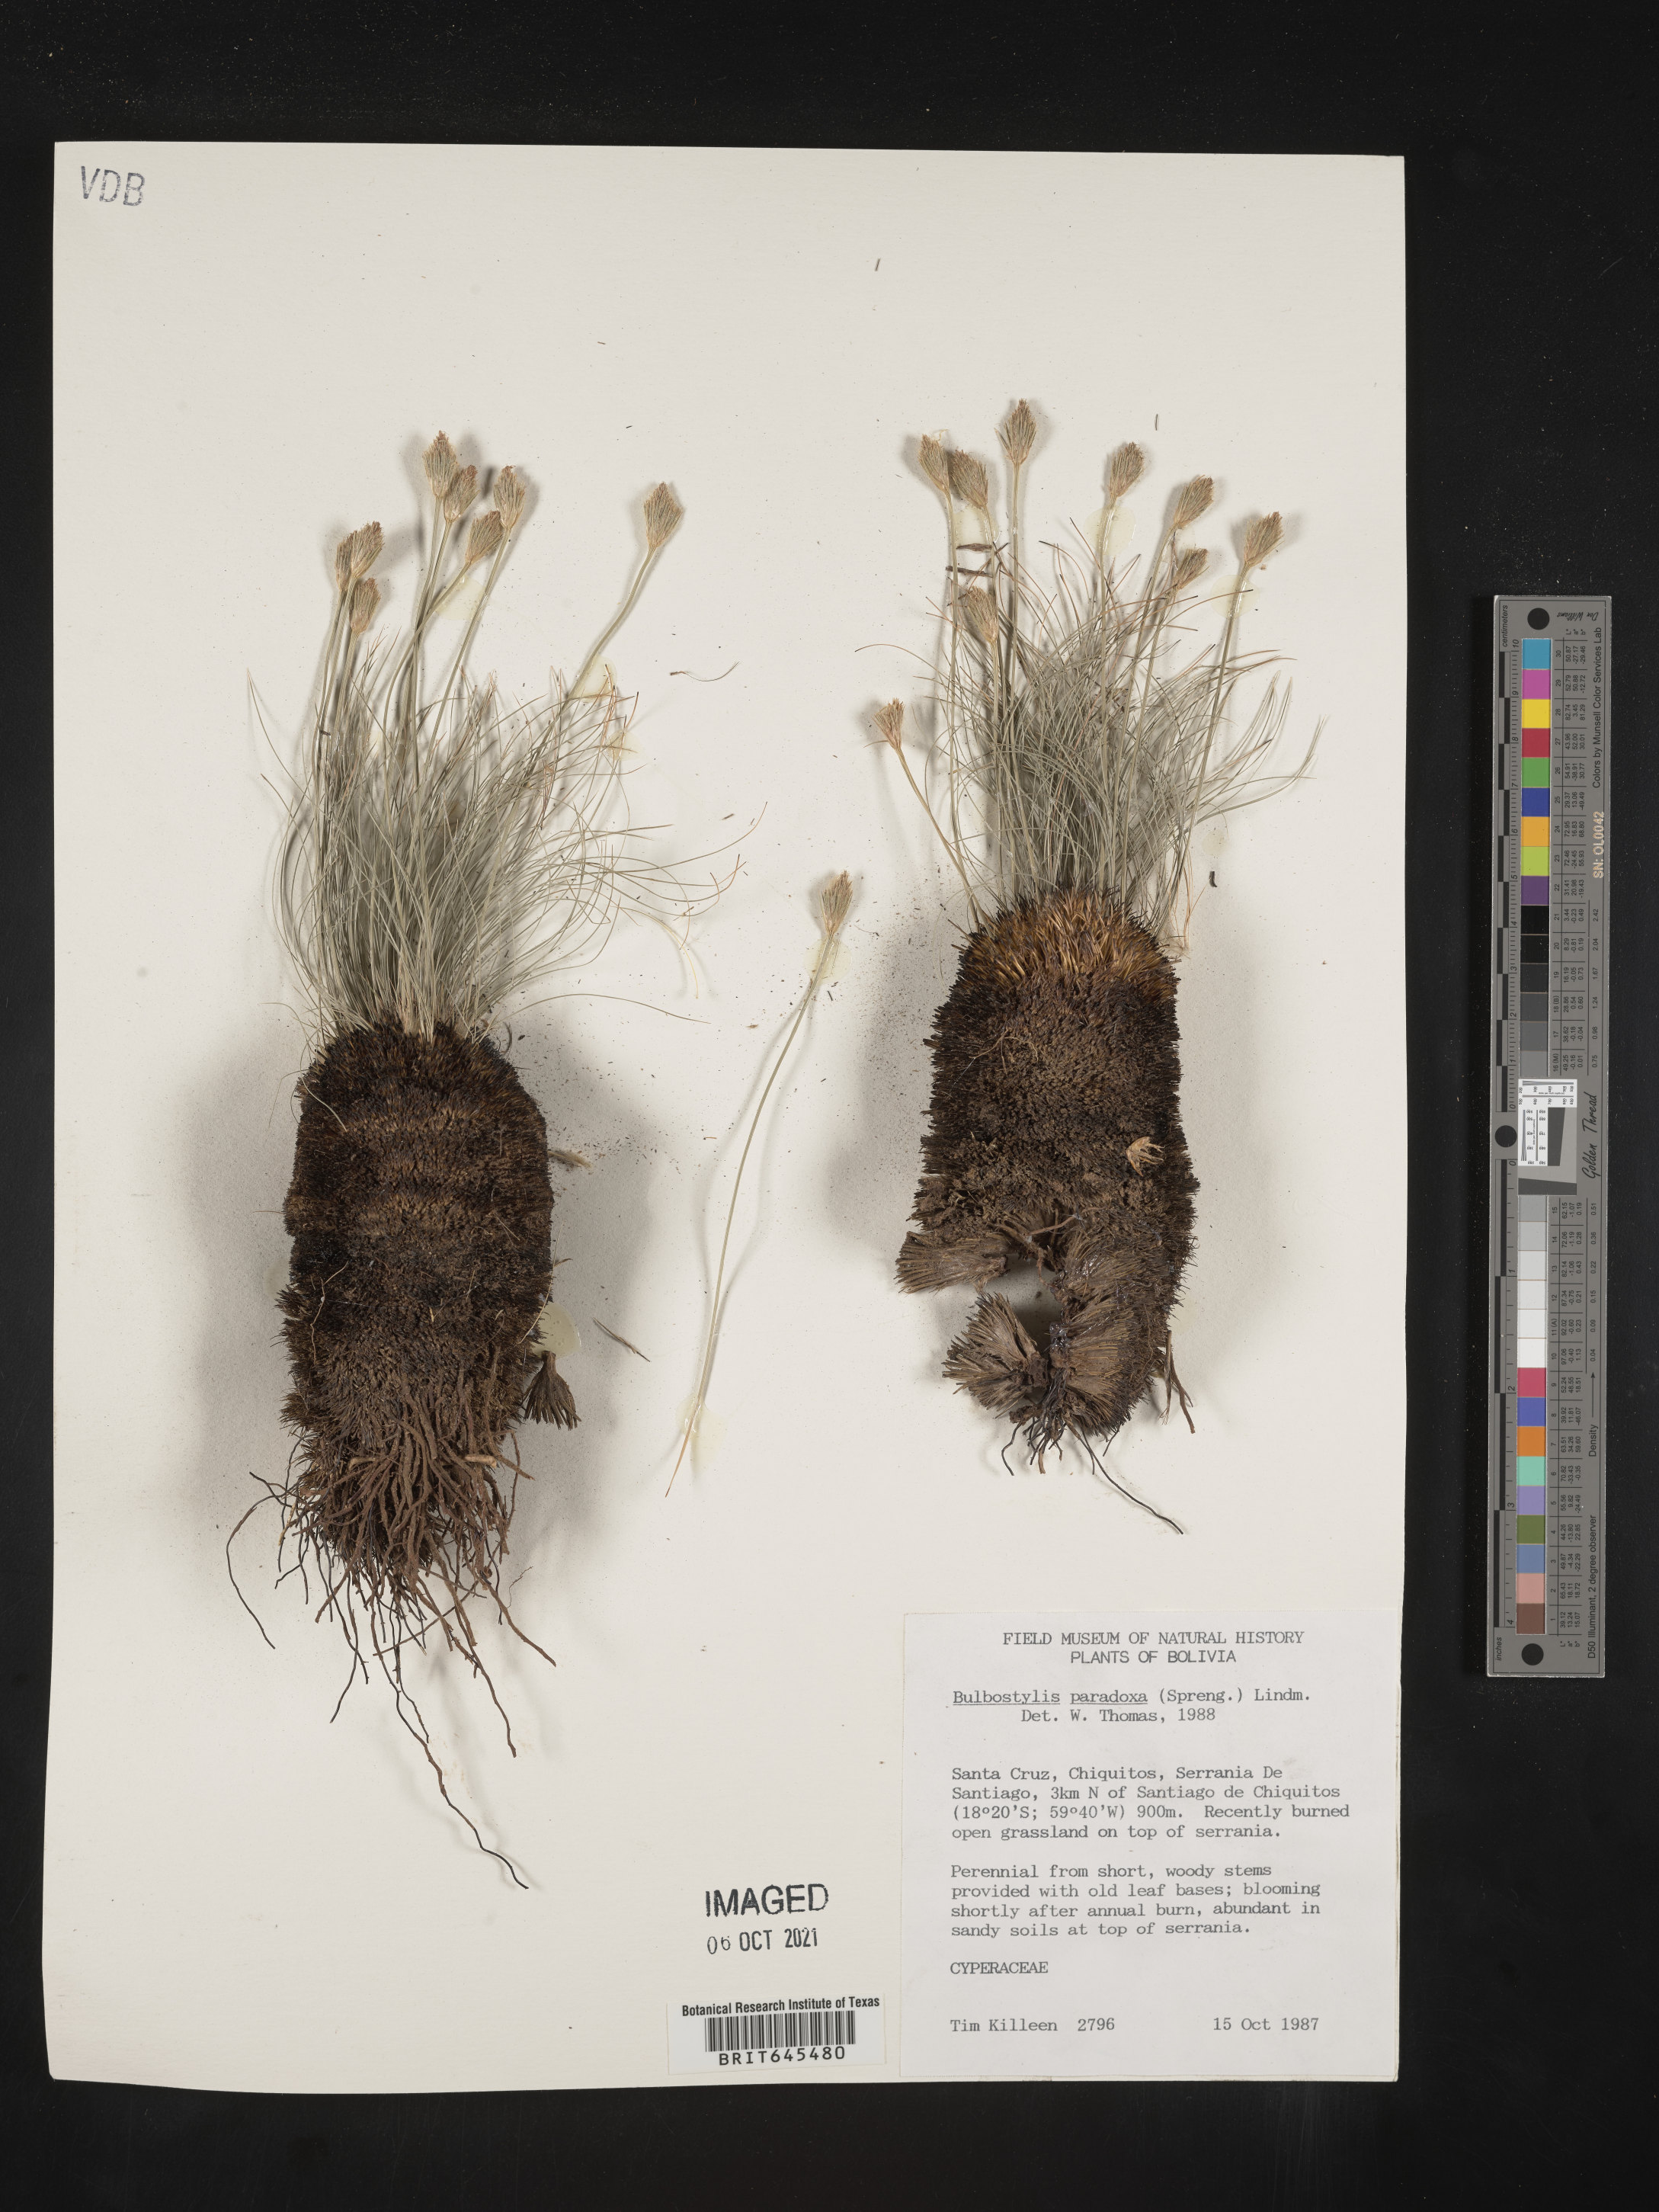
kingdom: Plantae
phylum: Tracheophyta
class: Liliopsida
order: Poales
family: Cyperaceae
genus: Bulbostylis
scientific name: Bulbostylis paradoxa
